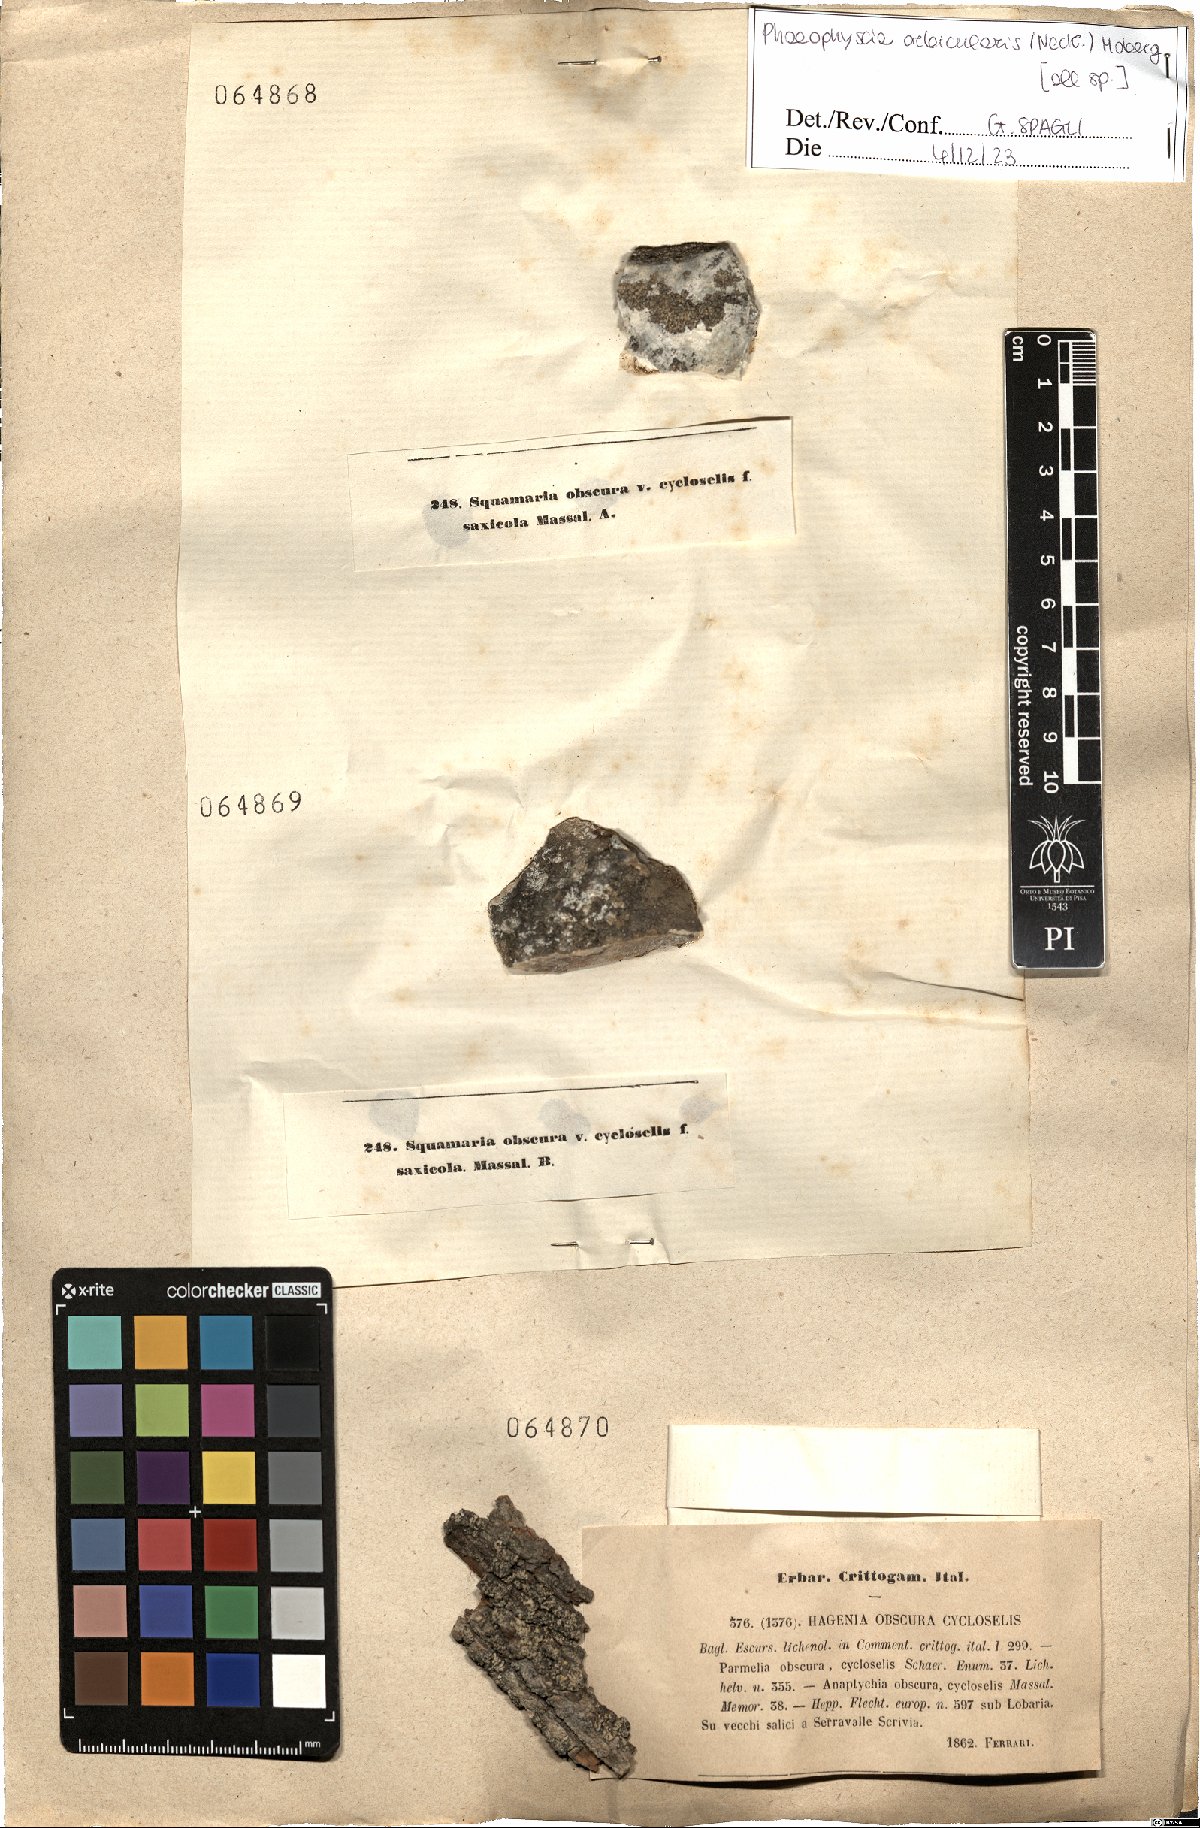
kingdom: Fungi
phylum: Ascomycota
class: Lecanoromycetes
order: Caliciales
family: Physciaceae
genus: Phaeophyscia
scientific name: Phaeophyscia orbicularis
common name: Mealy shadow lichen
